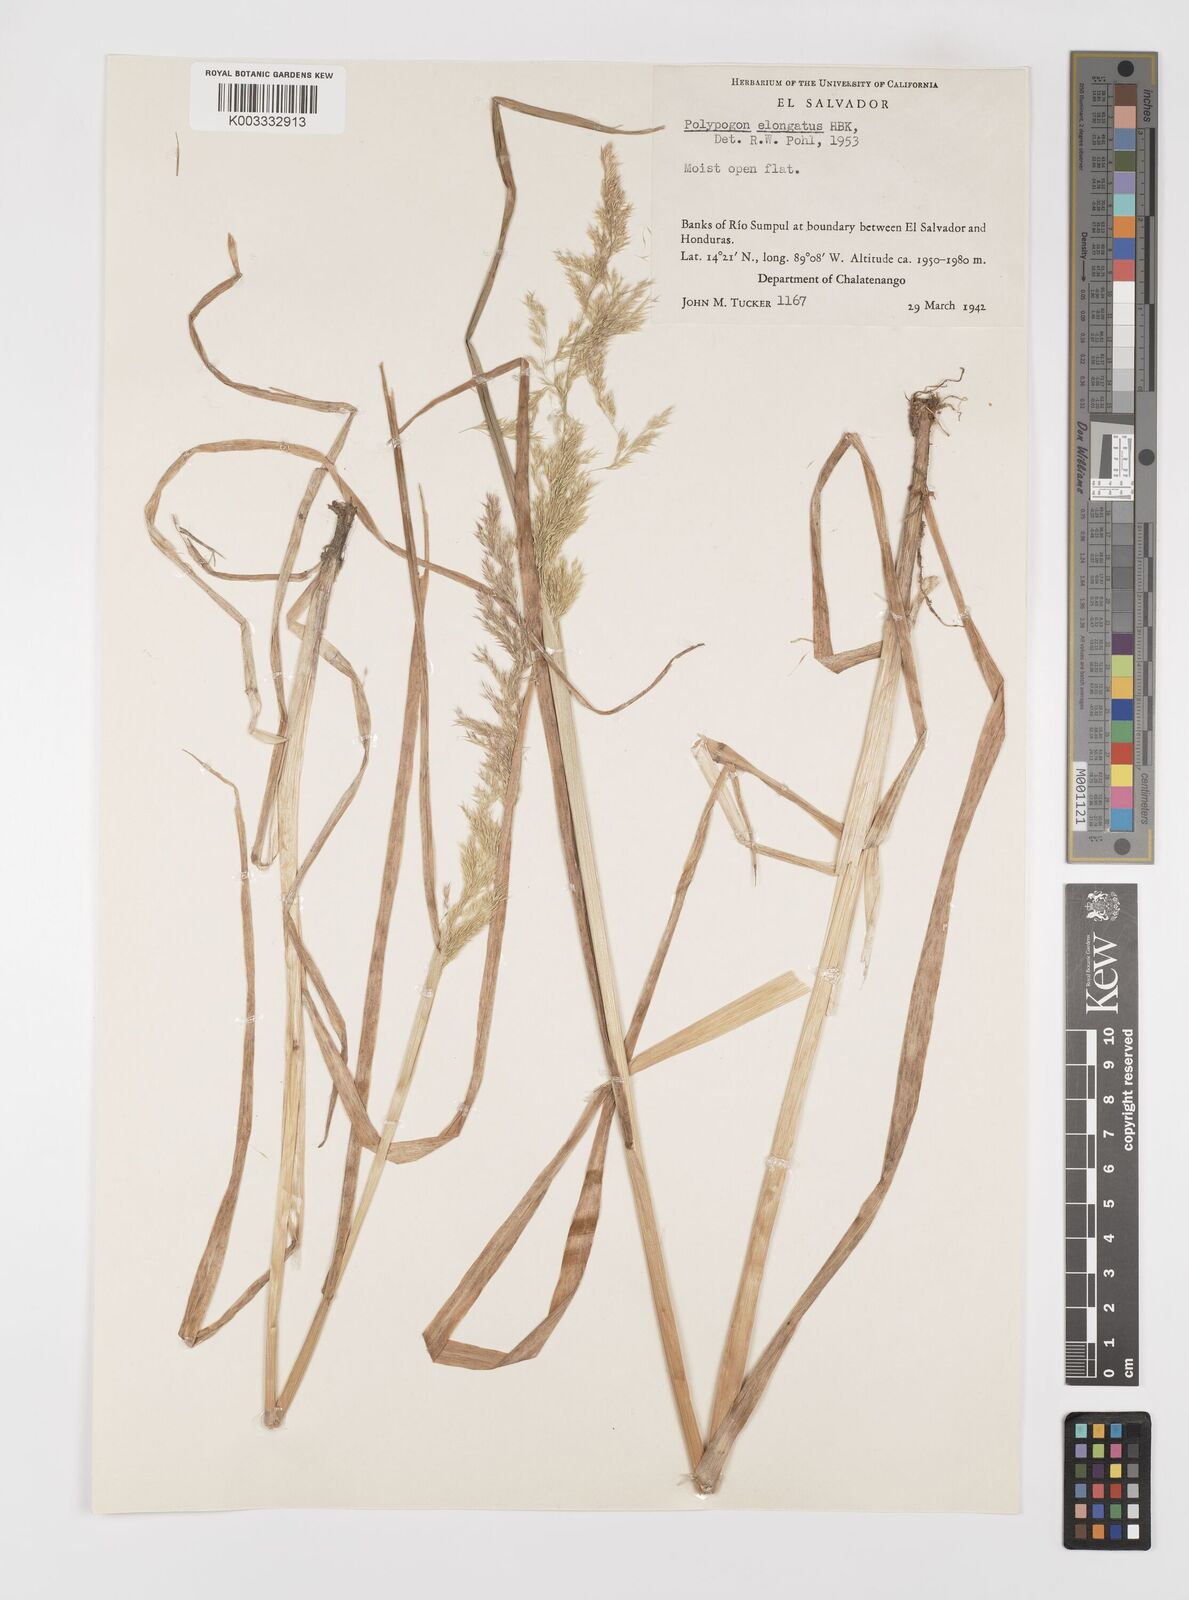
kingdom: Plantae
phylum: Tracheophyta
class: Liliopsida
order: Poales
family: Poaceae
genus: Polypogon
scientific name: Polypogon elongatus
